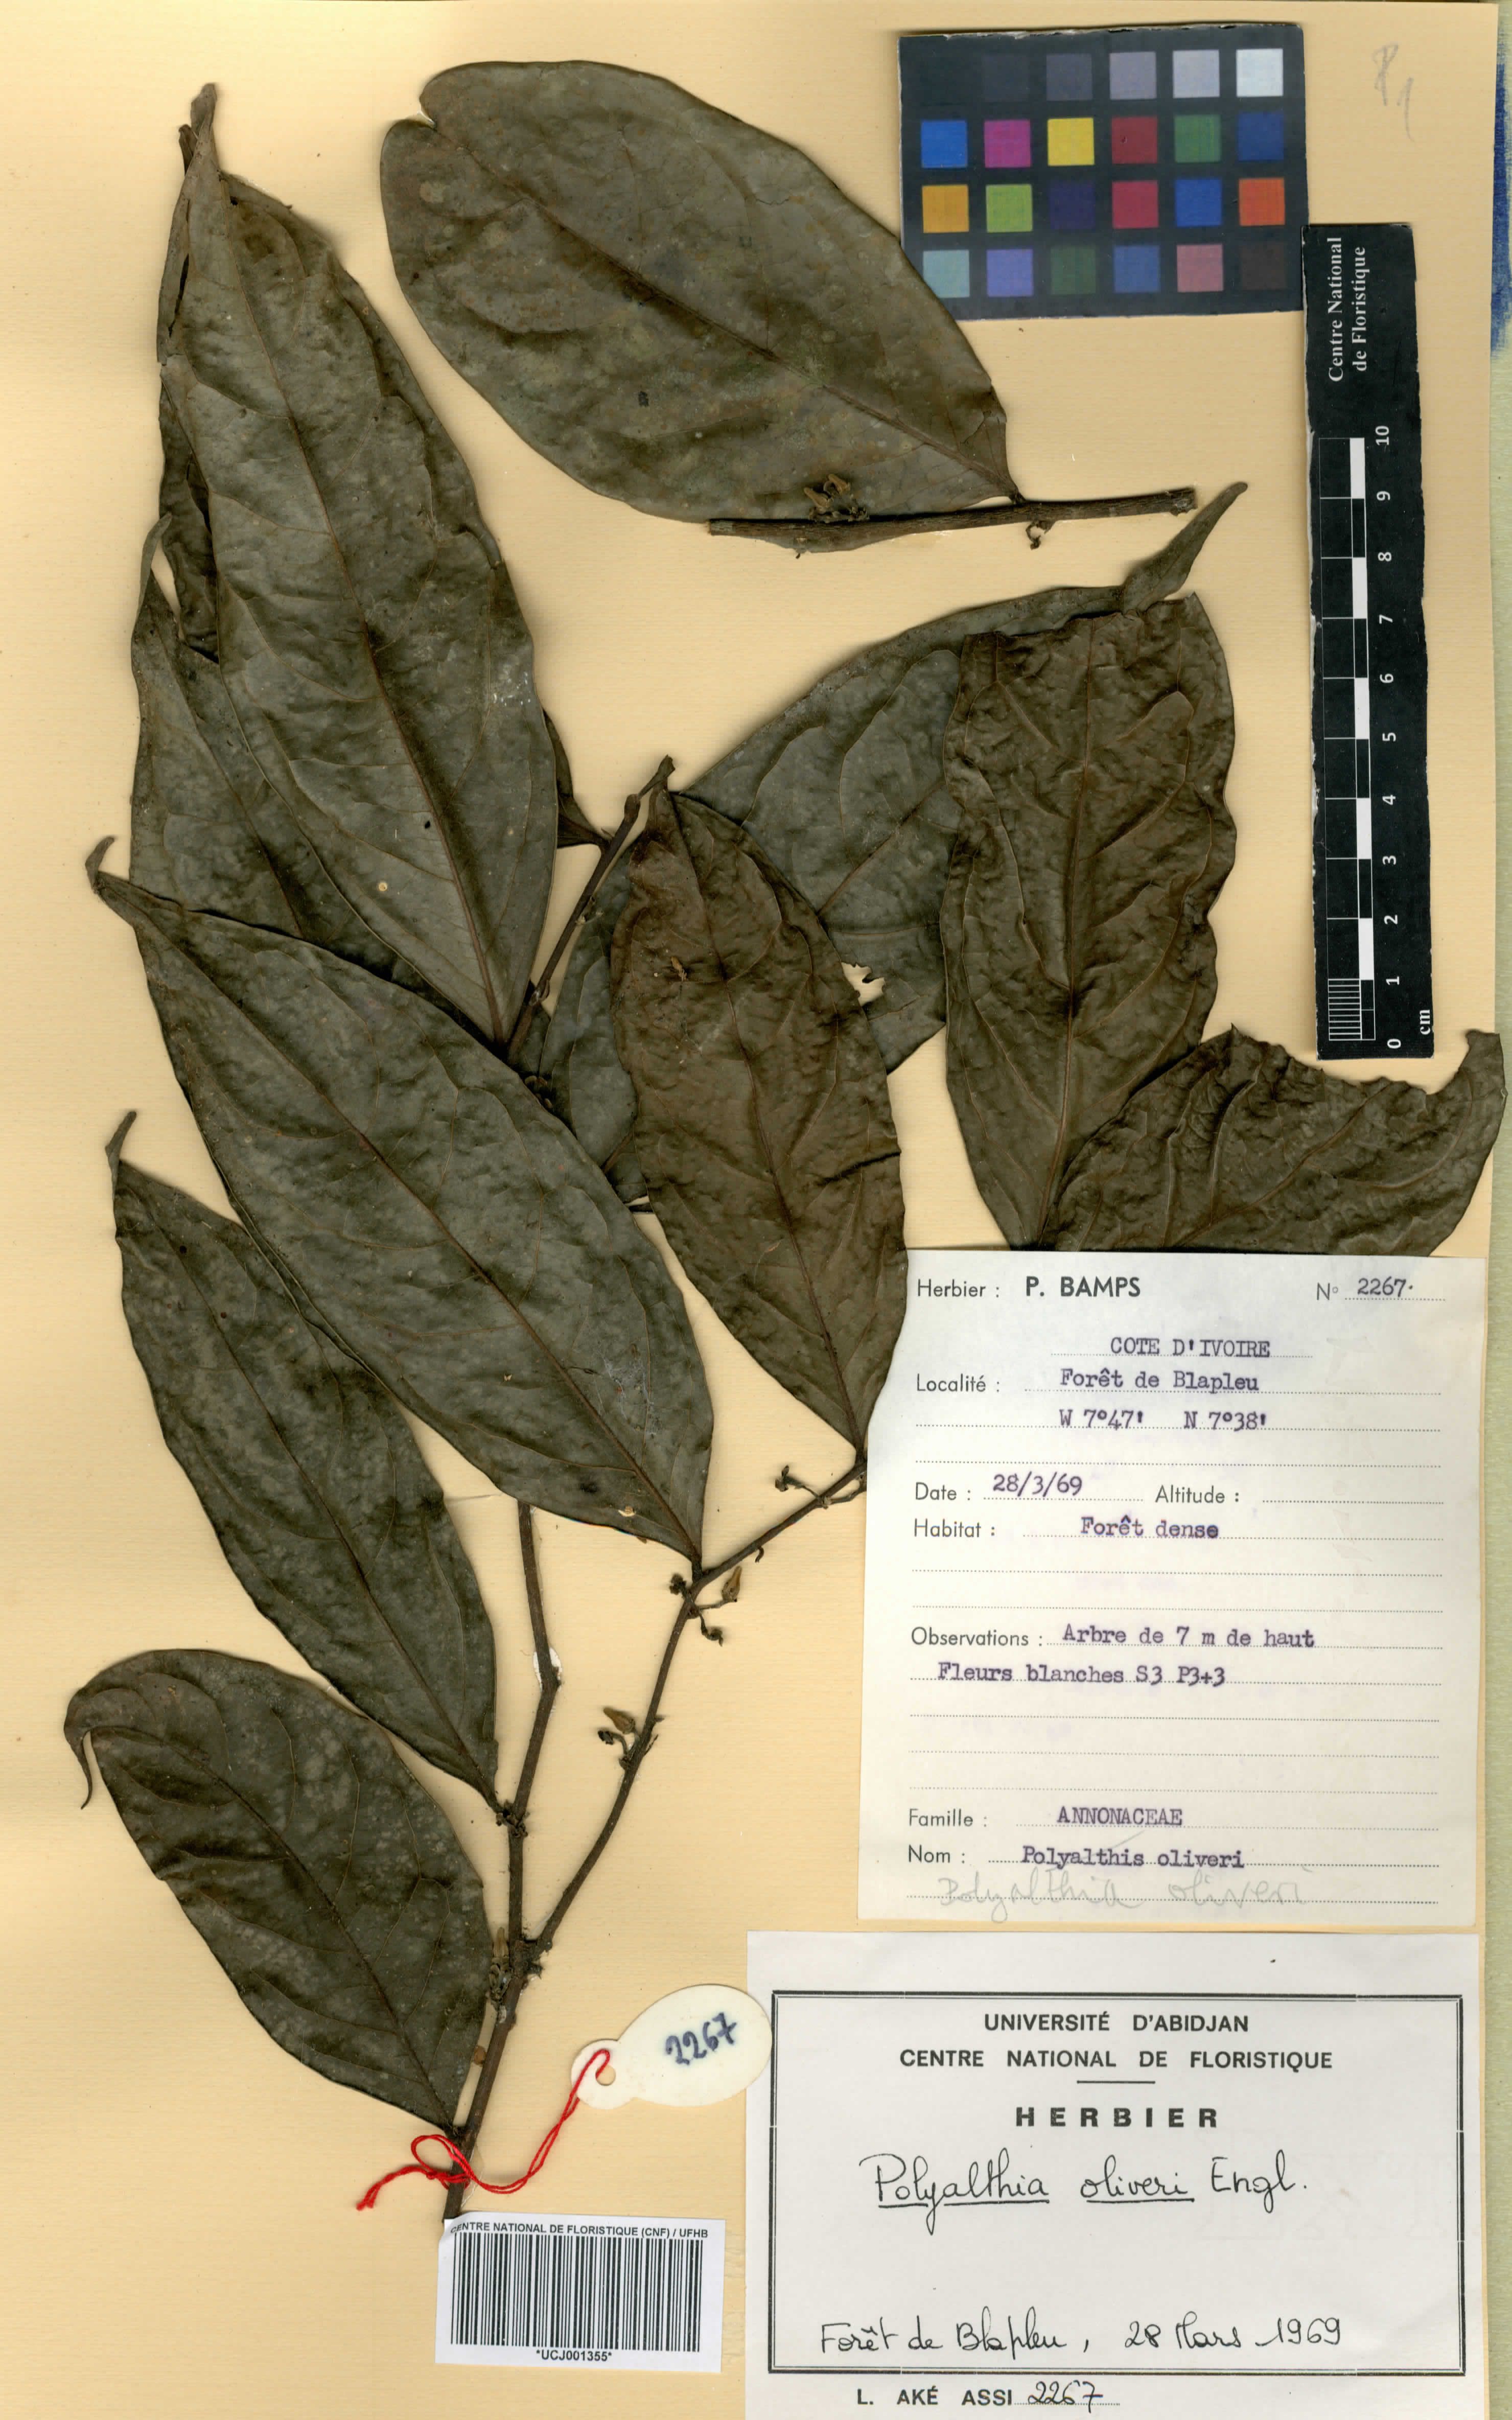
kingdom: Plantae
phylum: Tracheophyta
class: Magnoliopsida
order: Magnoliales
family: Annonaceae
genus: Greenwayodendron
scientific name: Greenwayodendron oliveri
